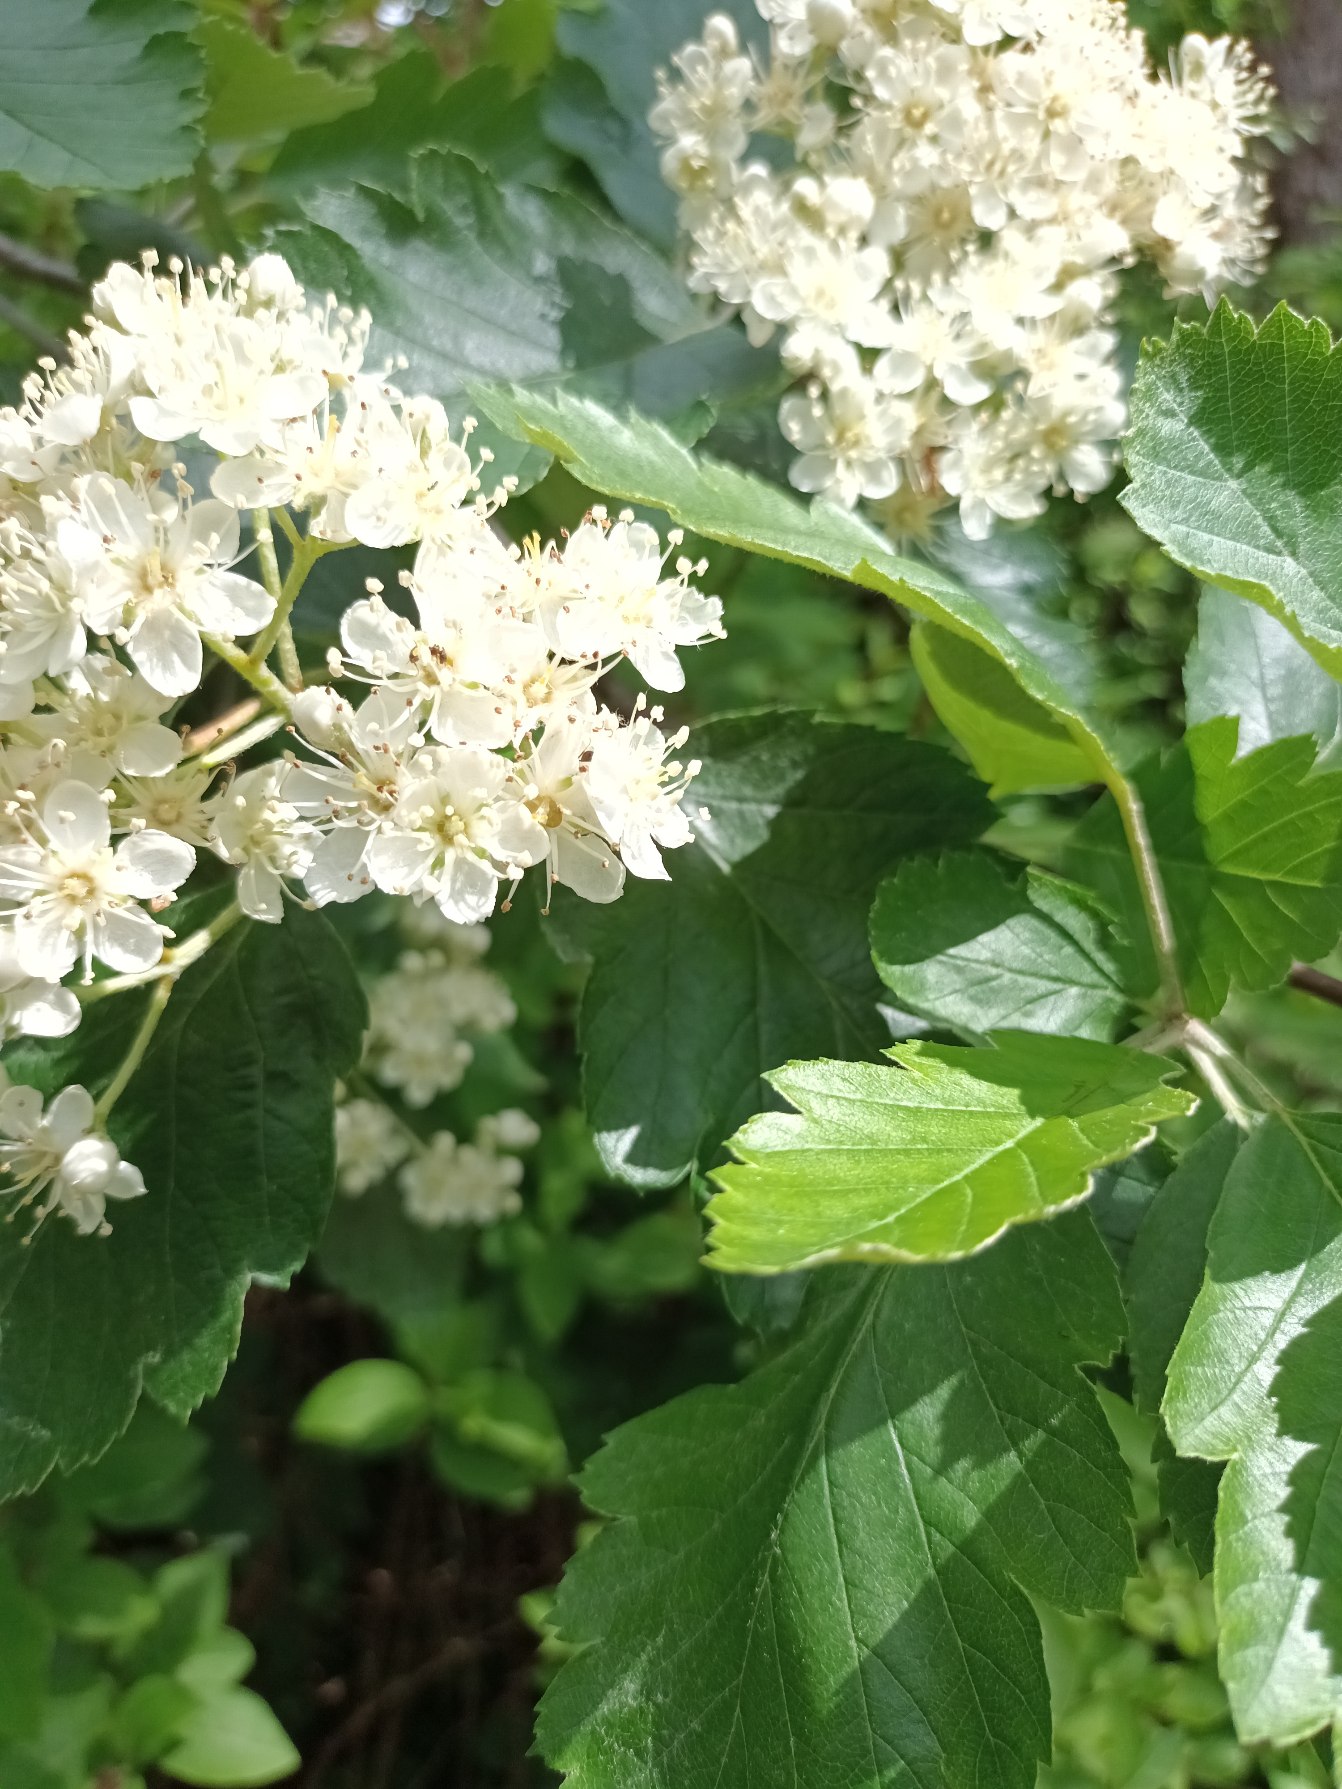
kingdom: Plantae
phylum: Tracheophyta
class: Magnoliopsida
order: Rosales
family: Rosaceae
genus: Scandosorbus
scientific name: Scandosorbus intermedia
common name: Selje-røn
